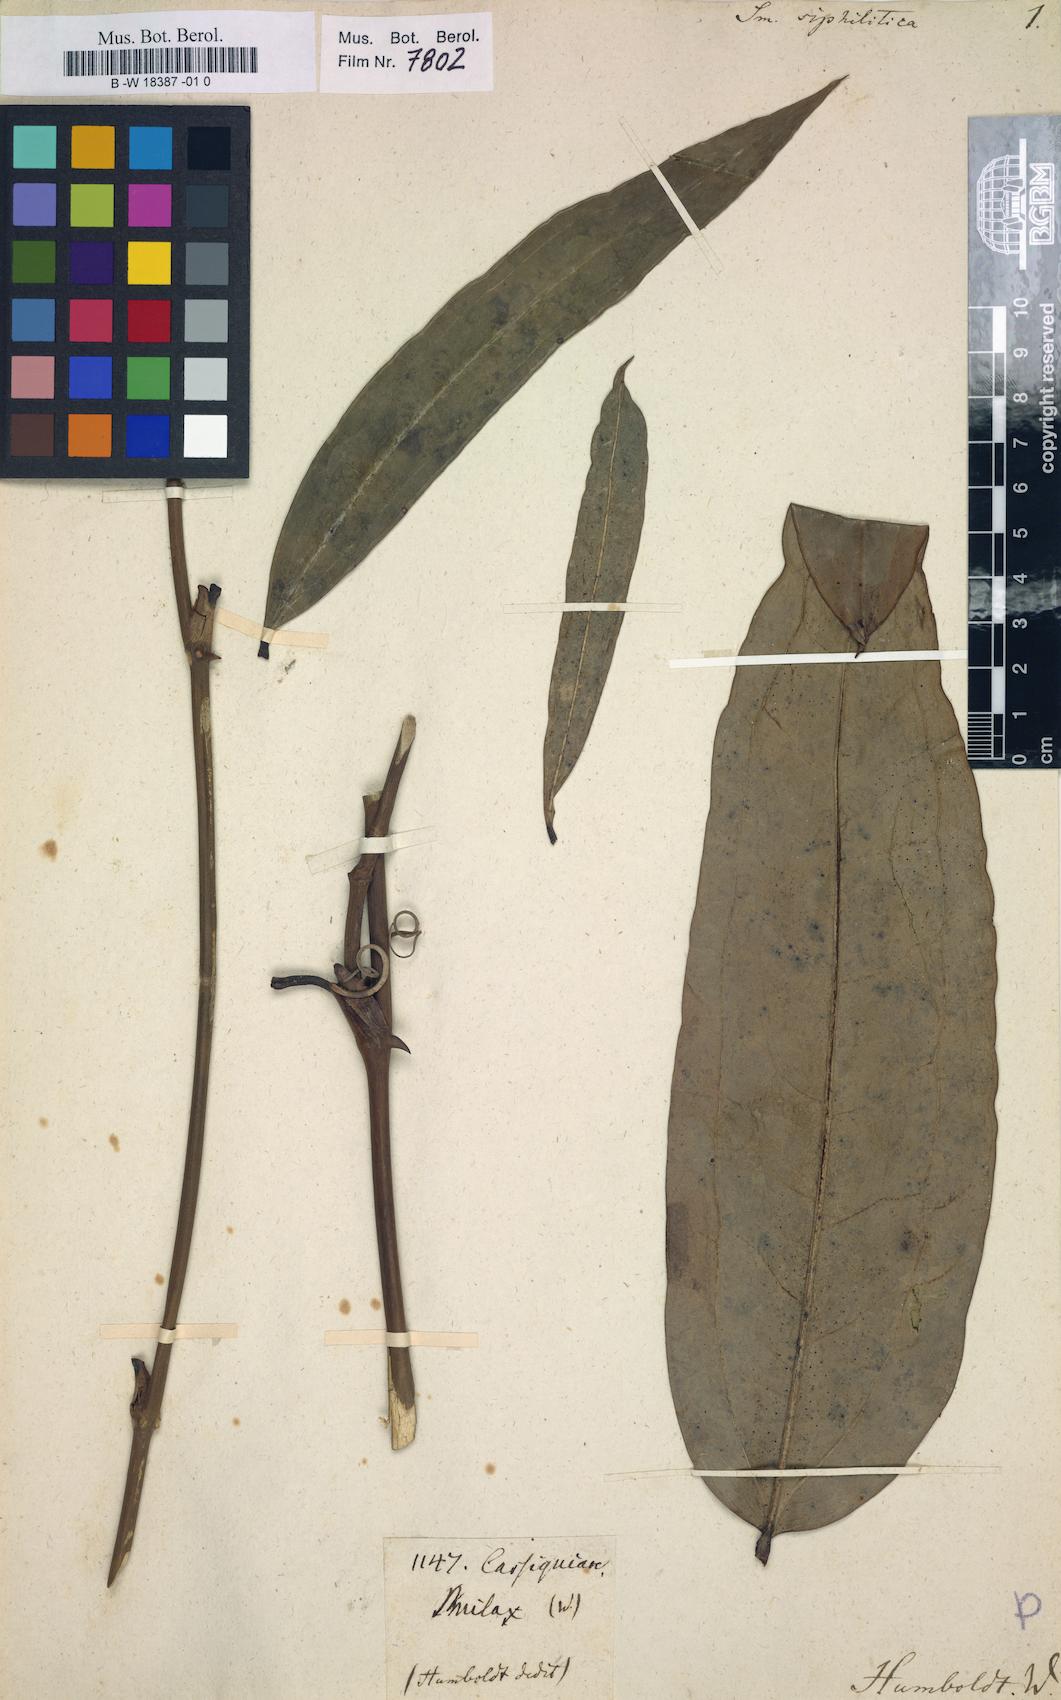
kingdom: Plantae
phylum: Tracheophyta
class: Liliopsida
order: Liliales
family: Smilacaceae
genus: Smilax
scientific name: Smilax siphilitica
